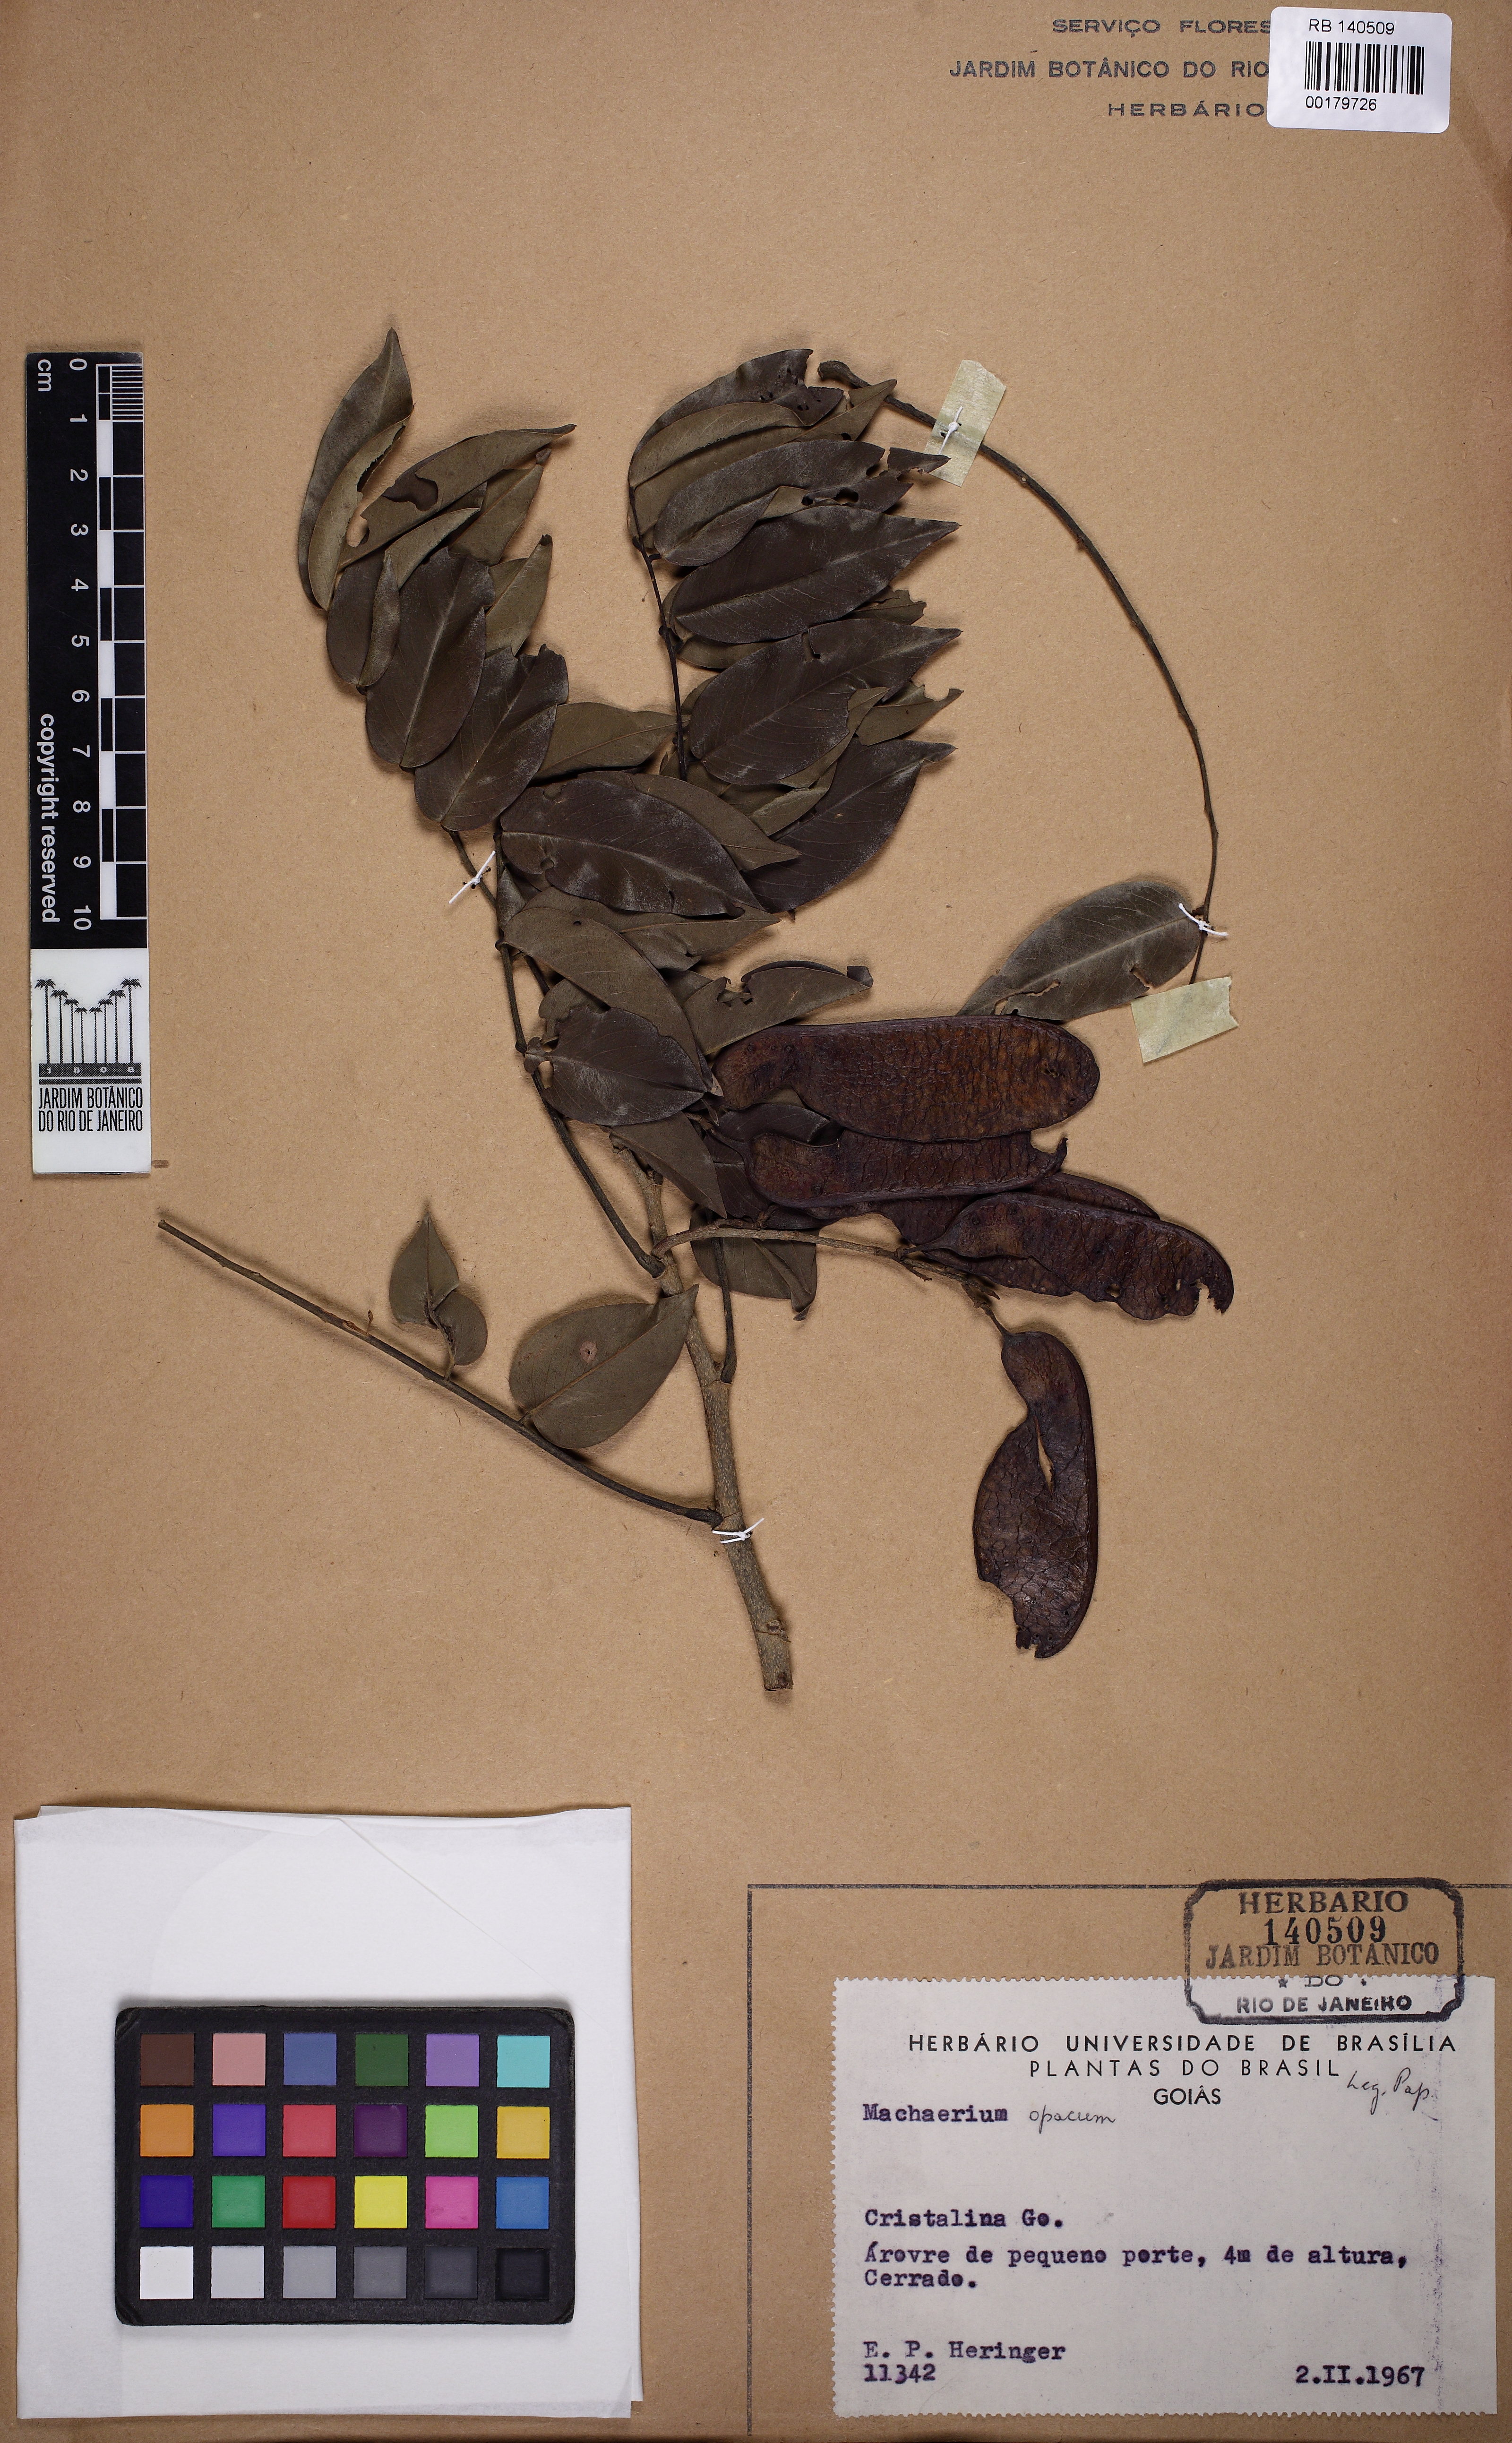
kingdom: Plantae
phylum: Tracheophyta
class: Magnoliopsida
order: Fabales
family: Fabaceae
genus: Machaerium
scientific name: Machaerium acutifolium
